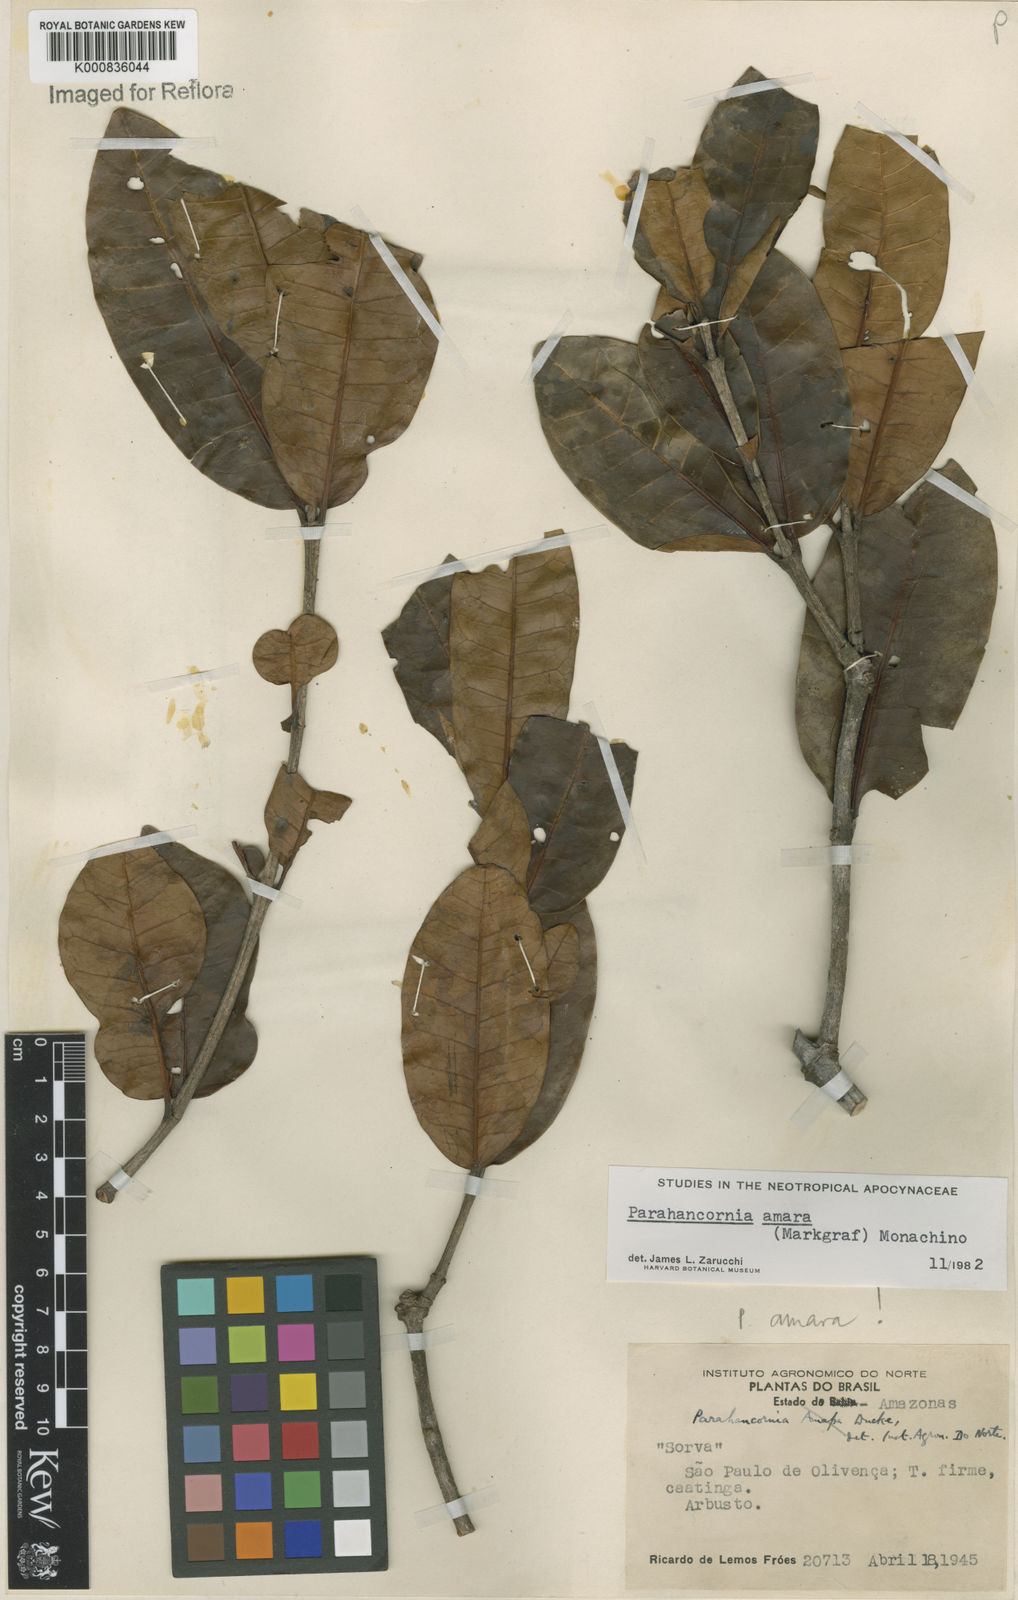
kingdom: Plantae
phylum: Tracheophyta
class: Magnoliopsida
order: Gentianales
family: Apocynaceae
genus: Parahancornia
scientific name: Parahancornia amara
